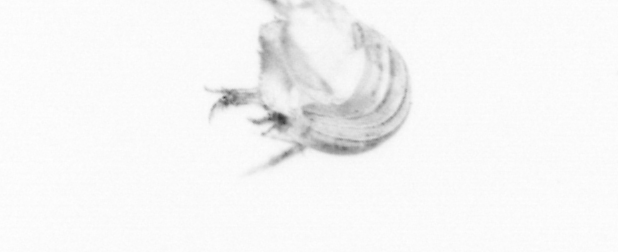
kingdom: Animalia
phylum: Annelida
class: Polychaeta
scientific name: Polychaeta
